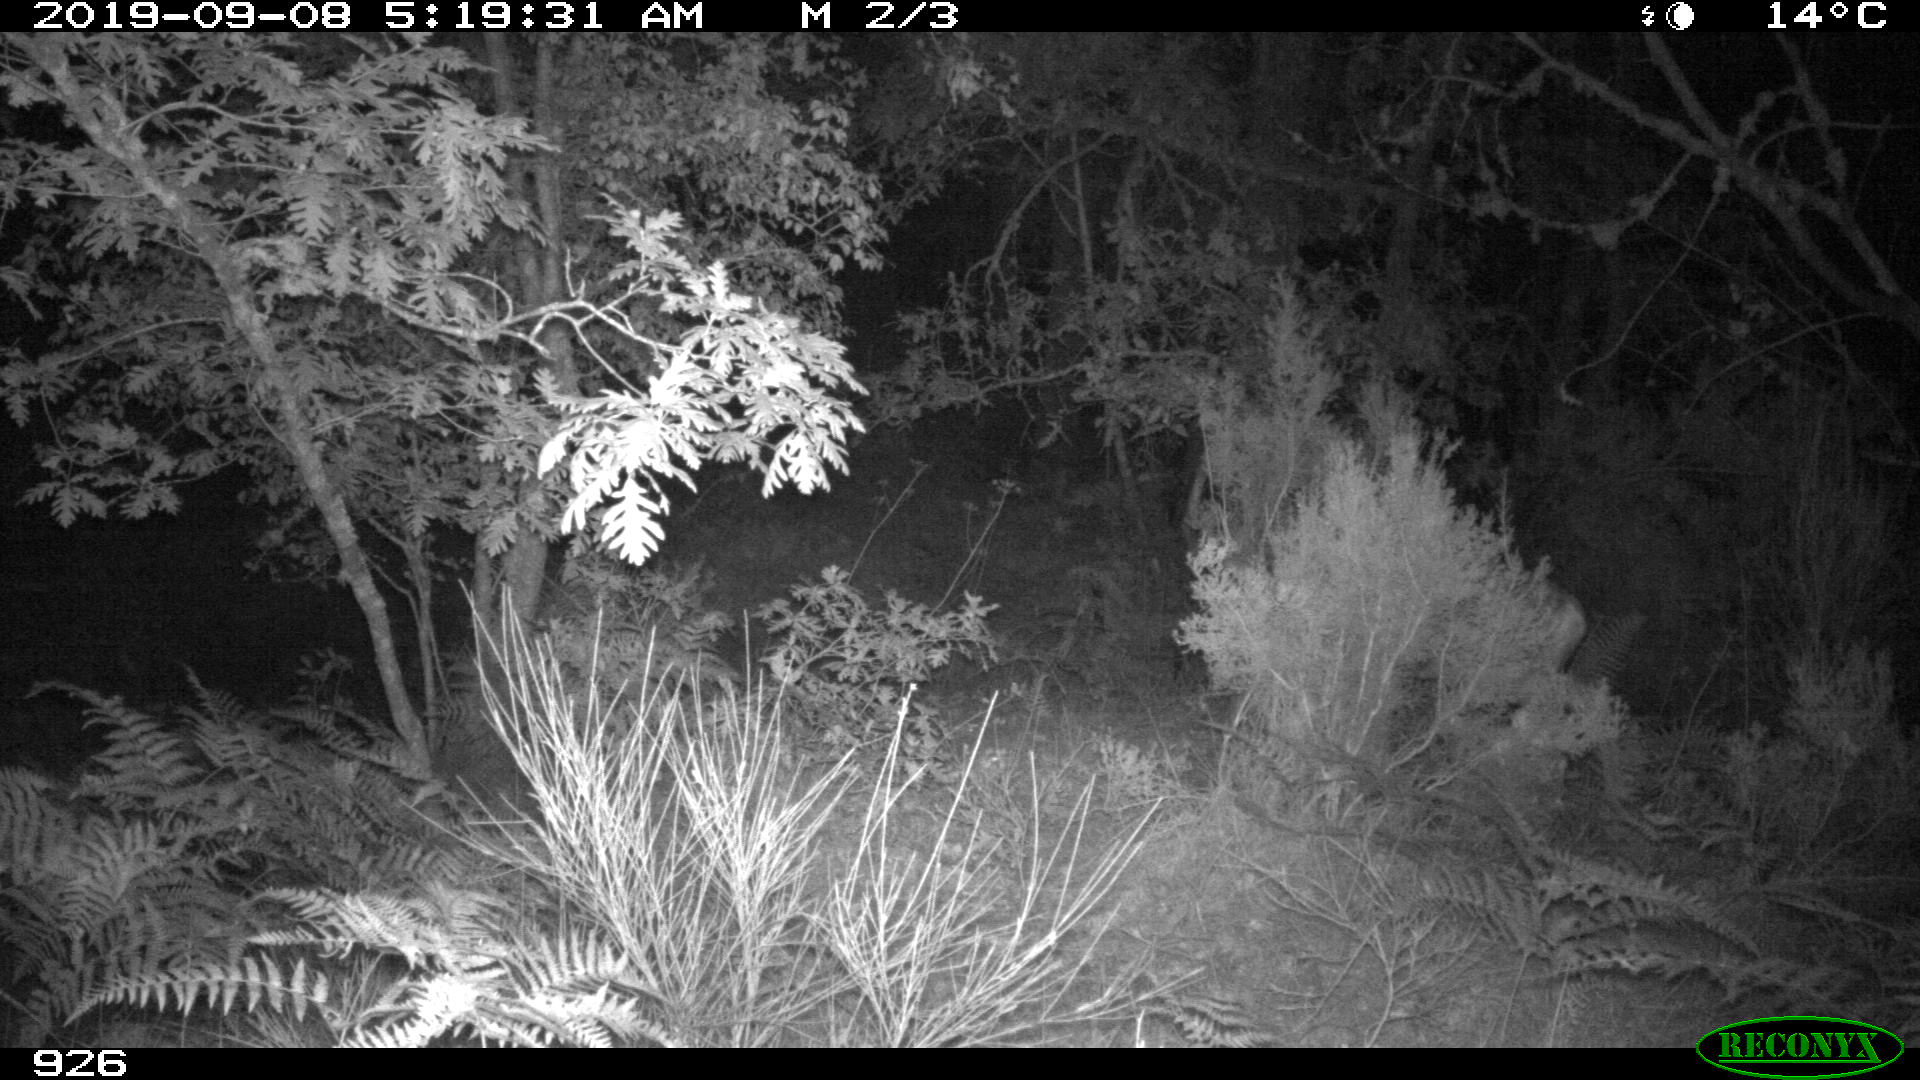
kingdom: Animalia
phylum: Chordata
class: Mammalia
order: Artiodactyla
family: Cervidae
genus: Capreolus
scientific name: Capreolus capreolus
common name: Western roe deer
